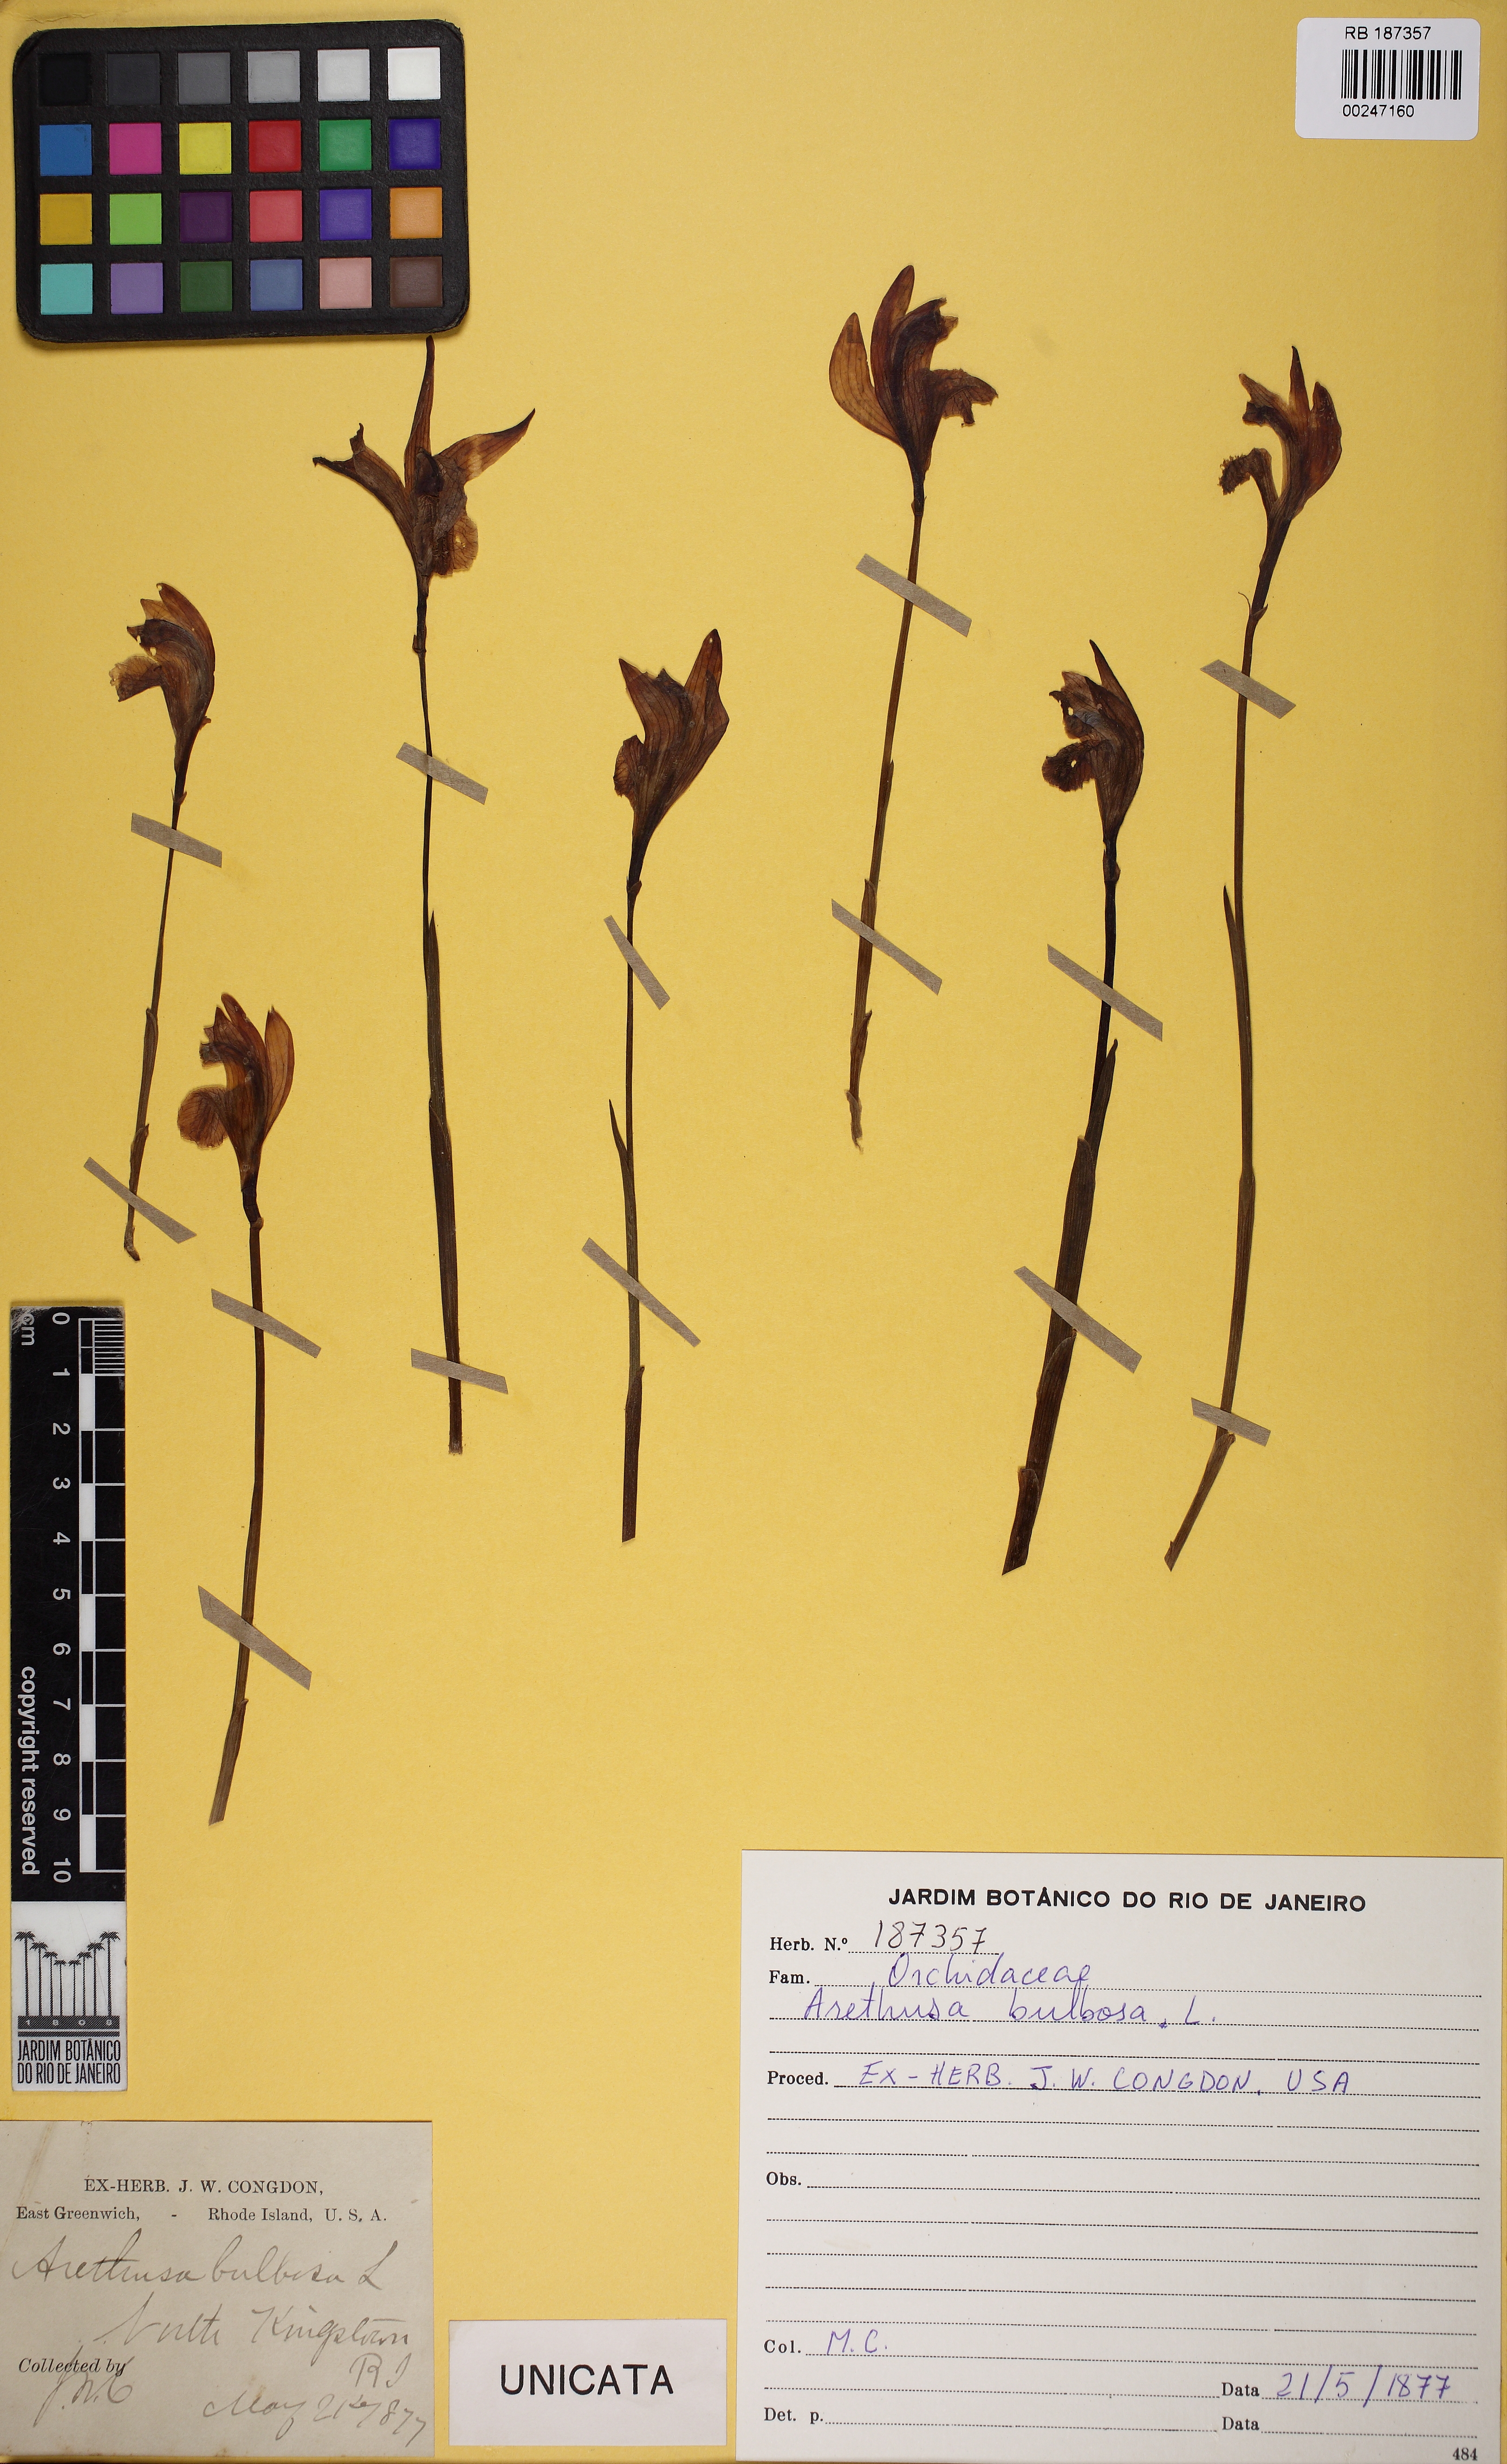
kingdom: Plantae
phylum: Tracheophyta
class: Liliopsida
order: Asparagales
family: Orchidaceae
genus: Arethusa
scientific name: Arethusa bulbosa
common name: Arethusa
